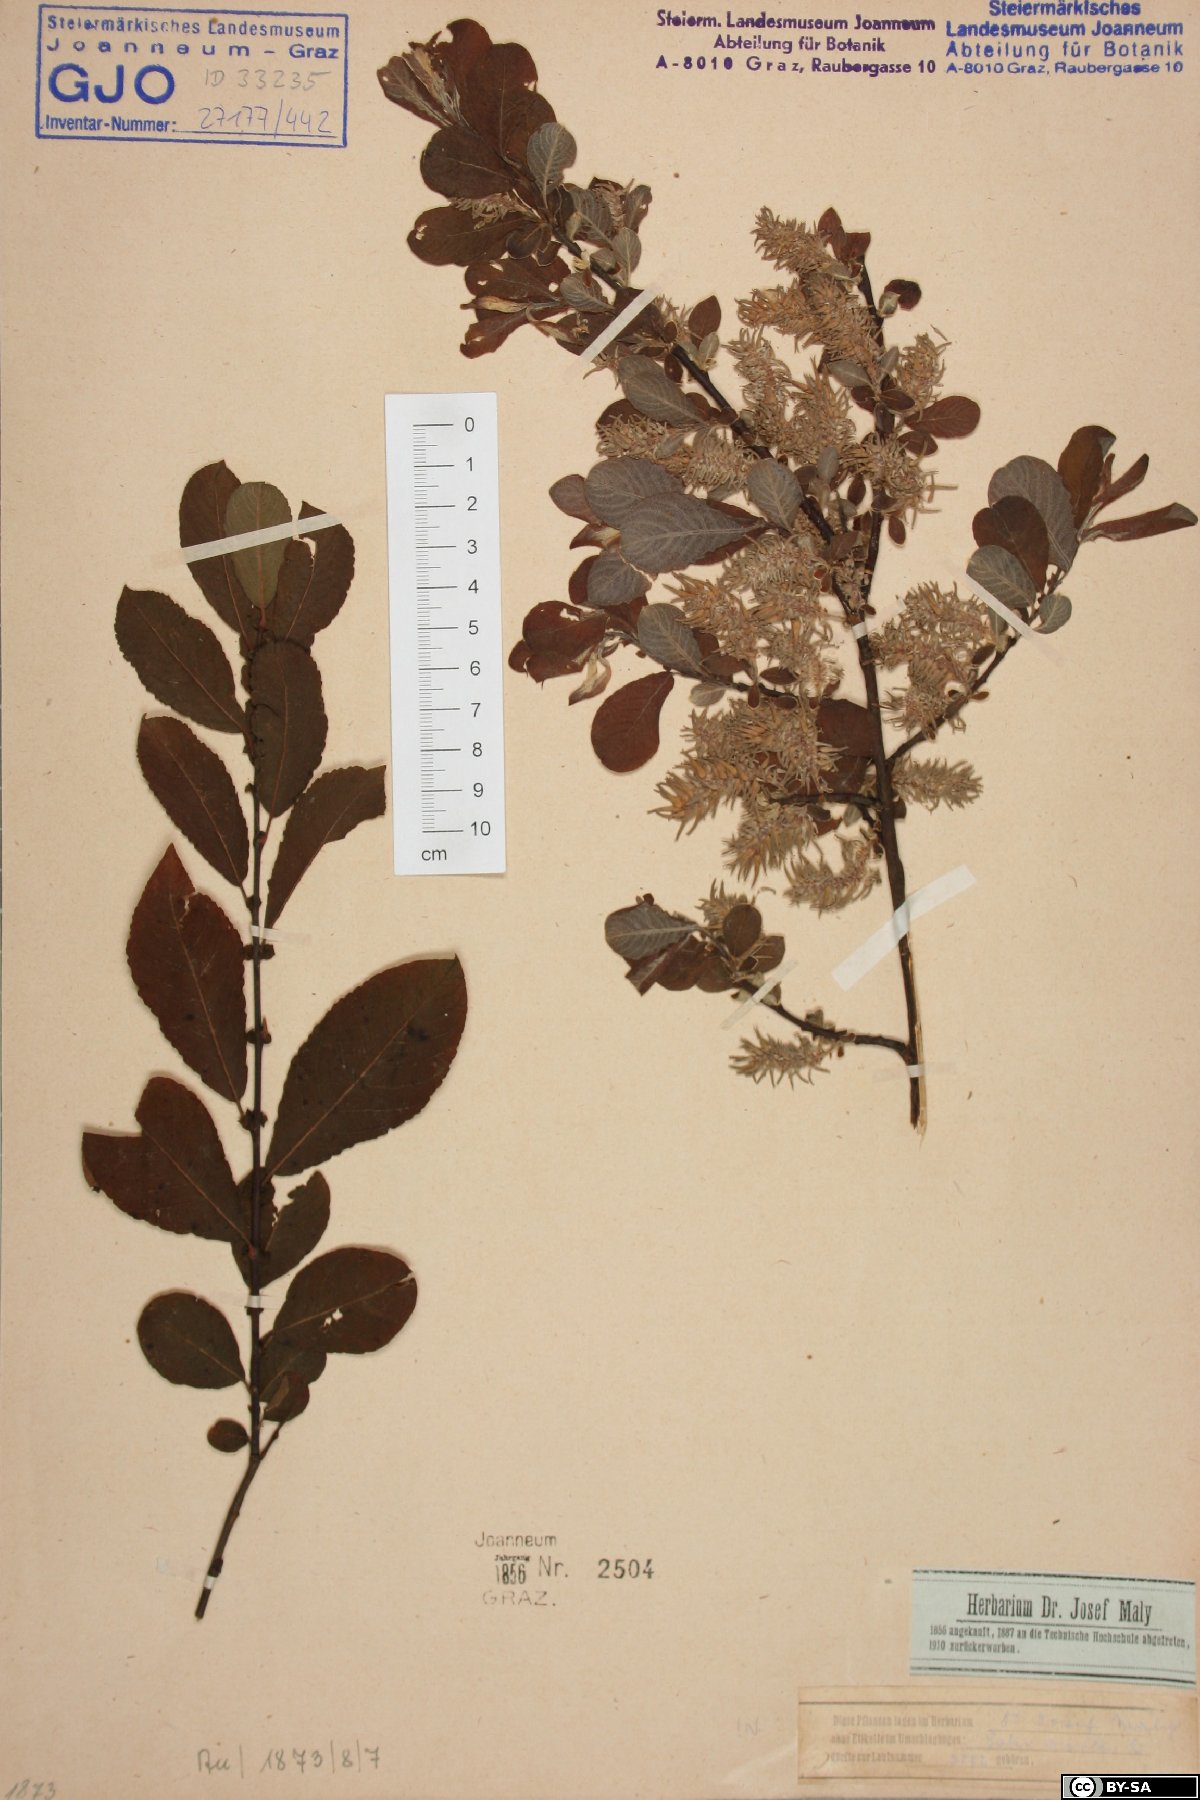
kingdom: Plantae
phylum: Tracheophyta
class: Magnoliopsida
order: Malpighiales
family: Salicaceae
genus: Salix
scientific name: Salix aurita
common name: Eared willow
